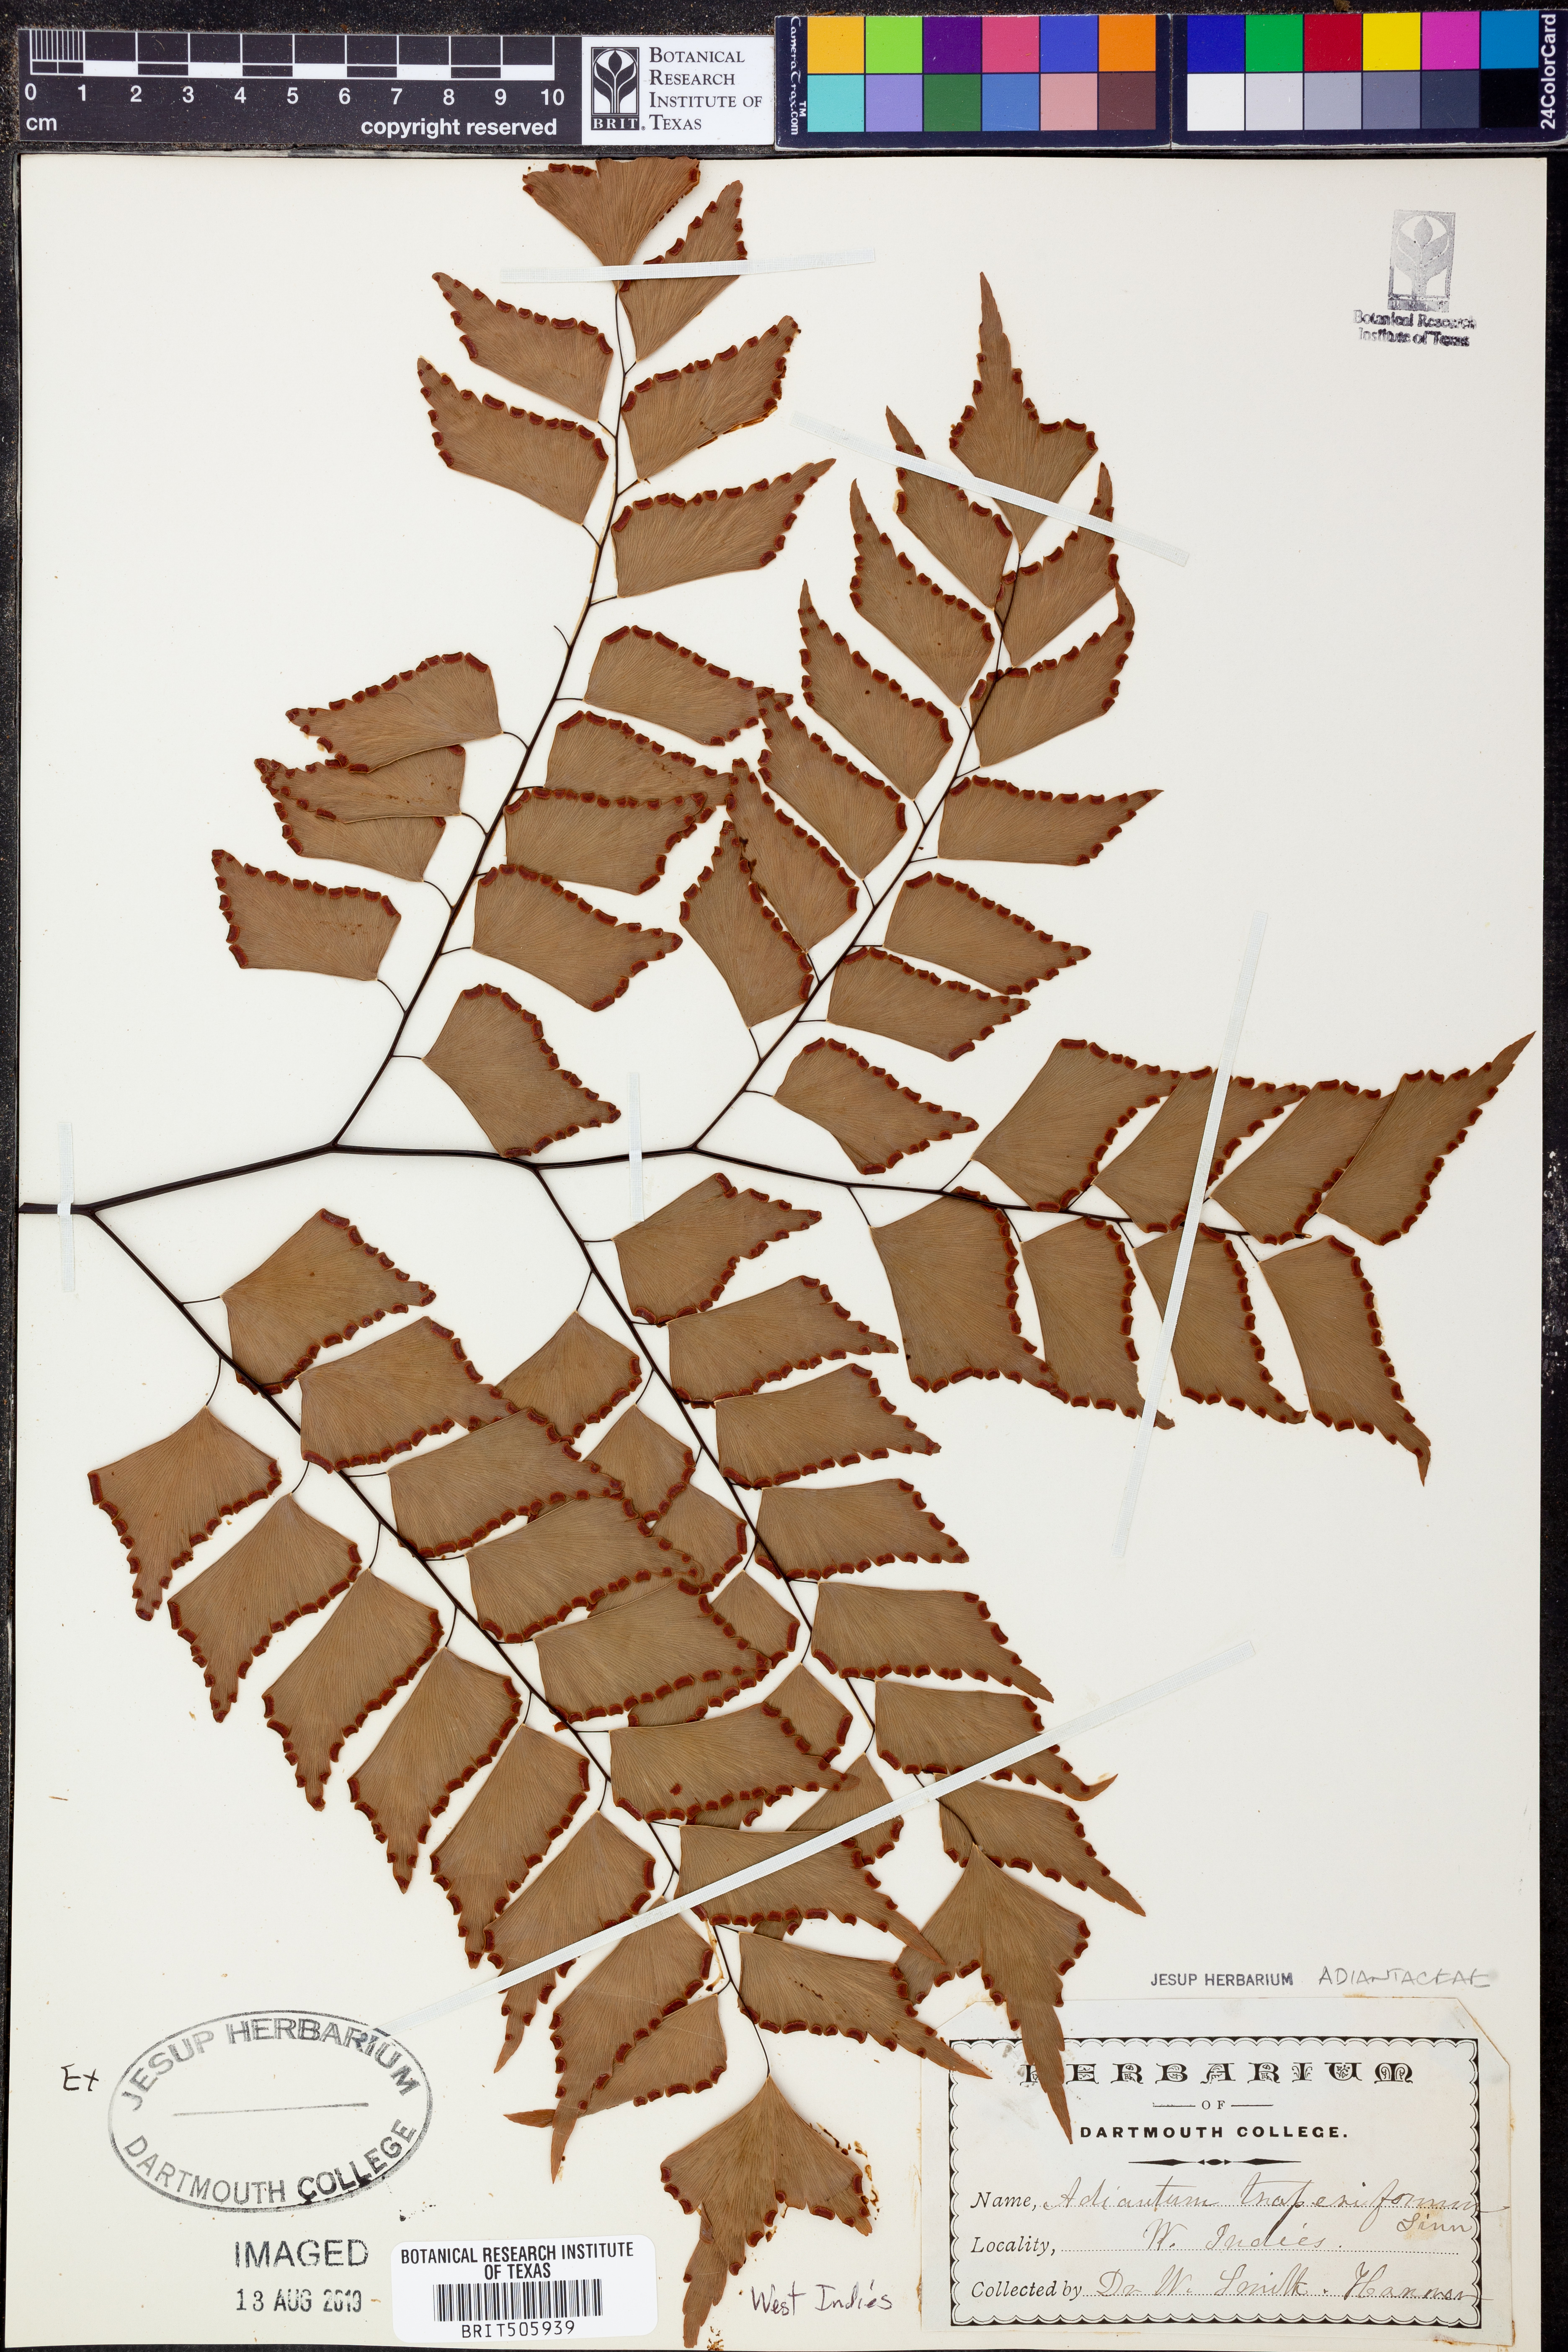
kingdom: Plantae
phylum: Tracheophyta
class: Polypodiopsida
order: Polypodiales
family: Pteridaceae
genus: Adiantum
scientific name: Adiantum trapeziforme
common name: Diamond maidenhair
